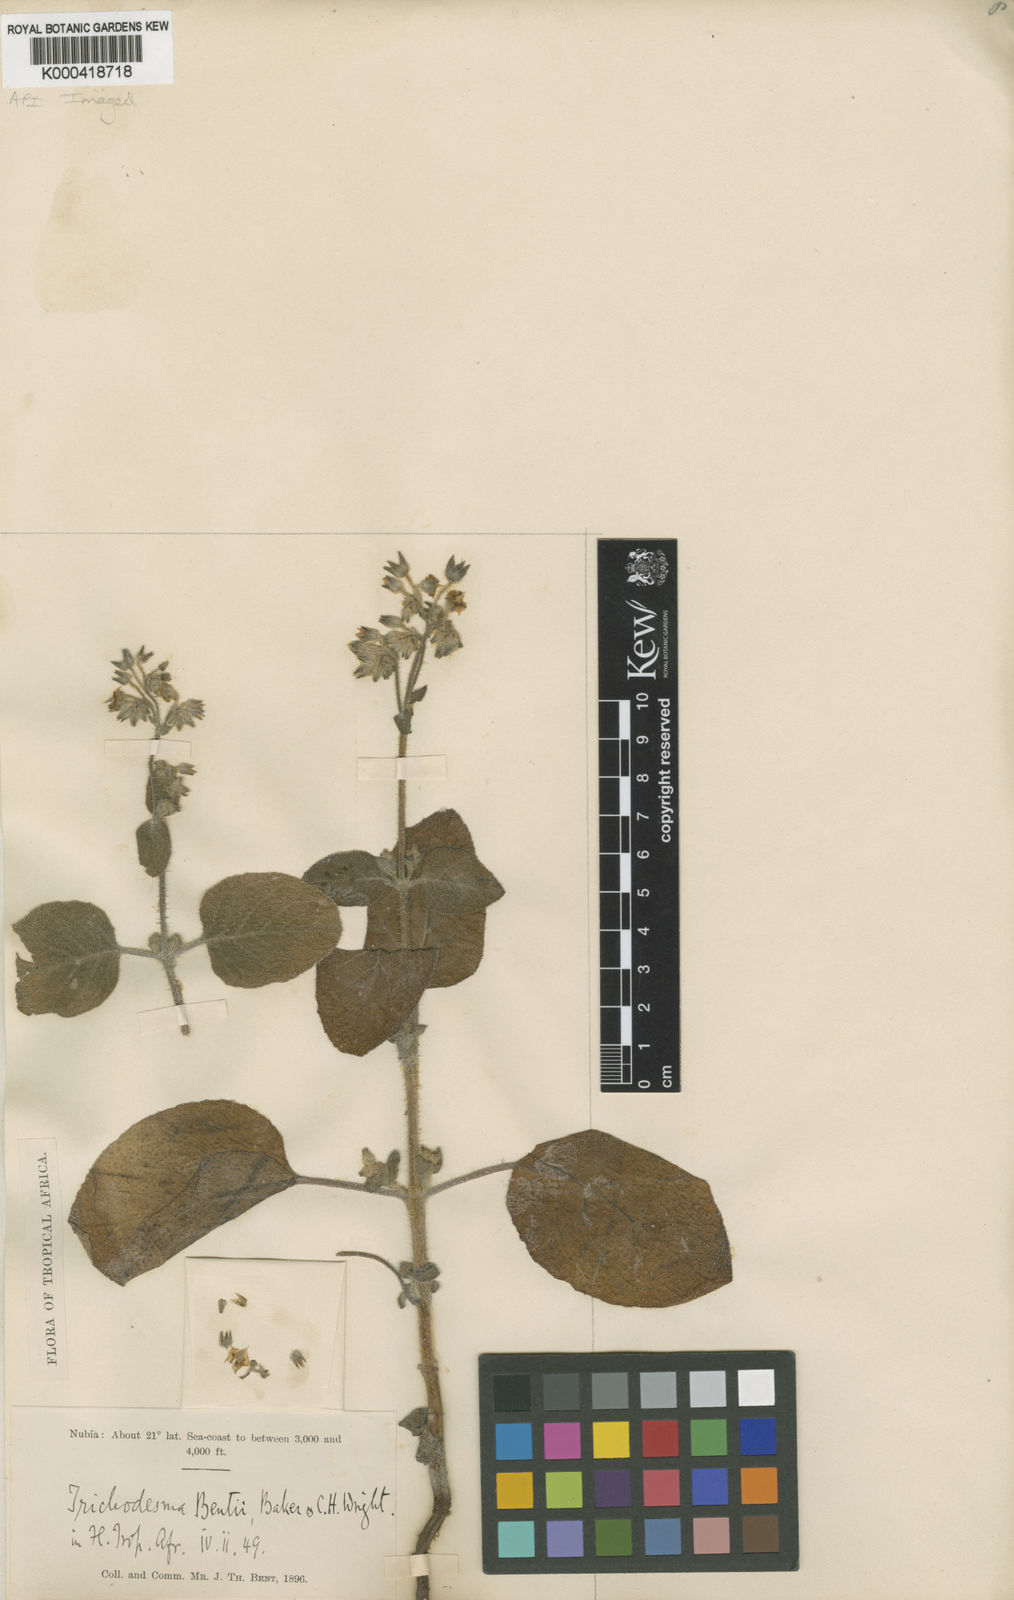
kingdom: Plantae
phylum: Tracheophyta
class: Magnoliopsida
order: Boraginales
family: Boraginaceae
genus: Trichodesma
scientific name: Trichodesma
